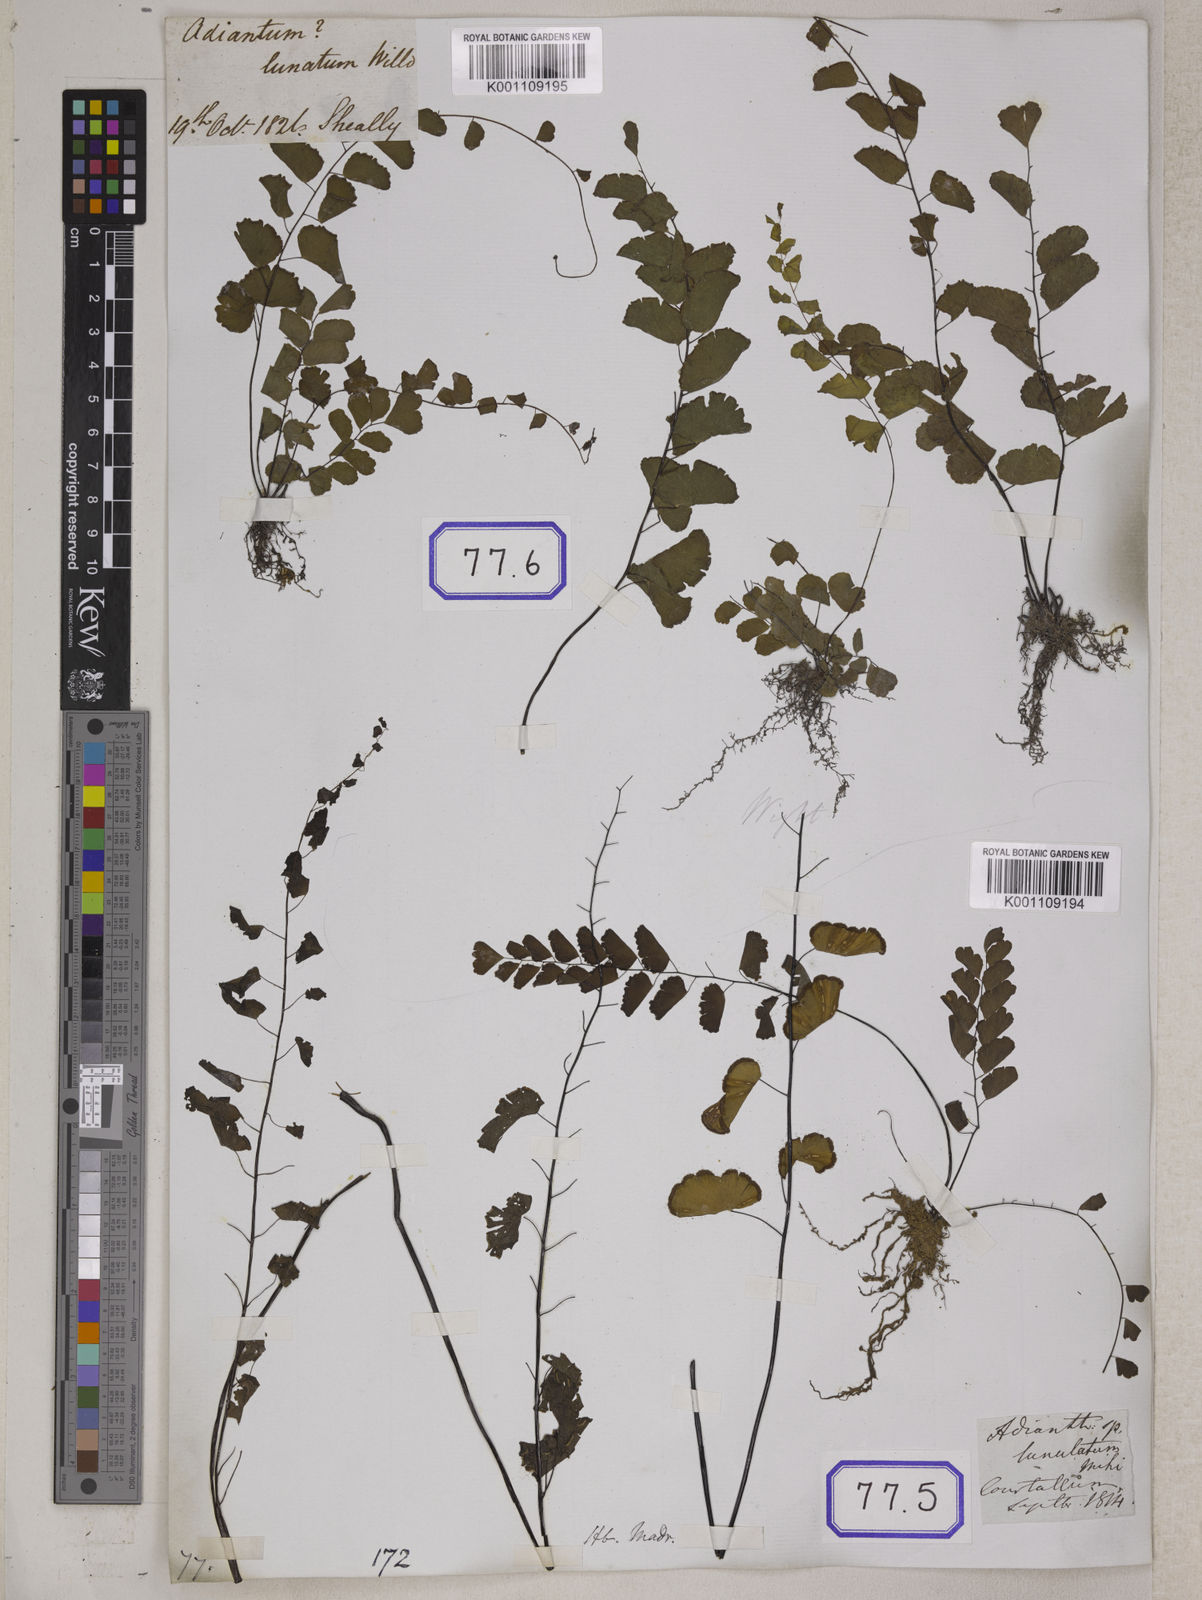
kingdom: Plantae
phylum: Tracheophyta
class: Polypodiopsida
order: Polypodiales
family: Pteridaceae
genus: Adiantum
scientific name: Adiantum philippense
